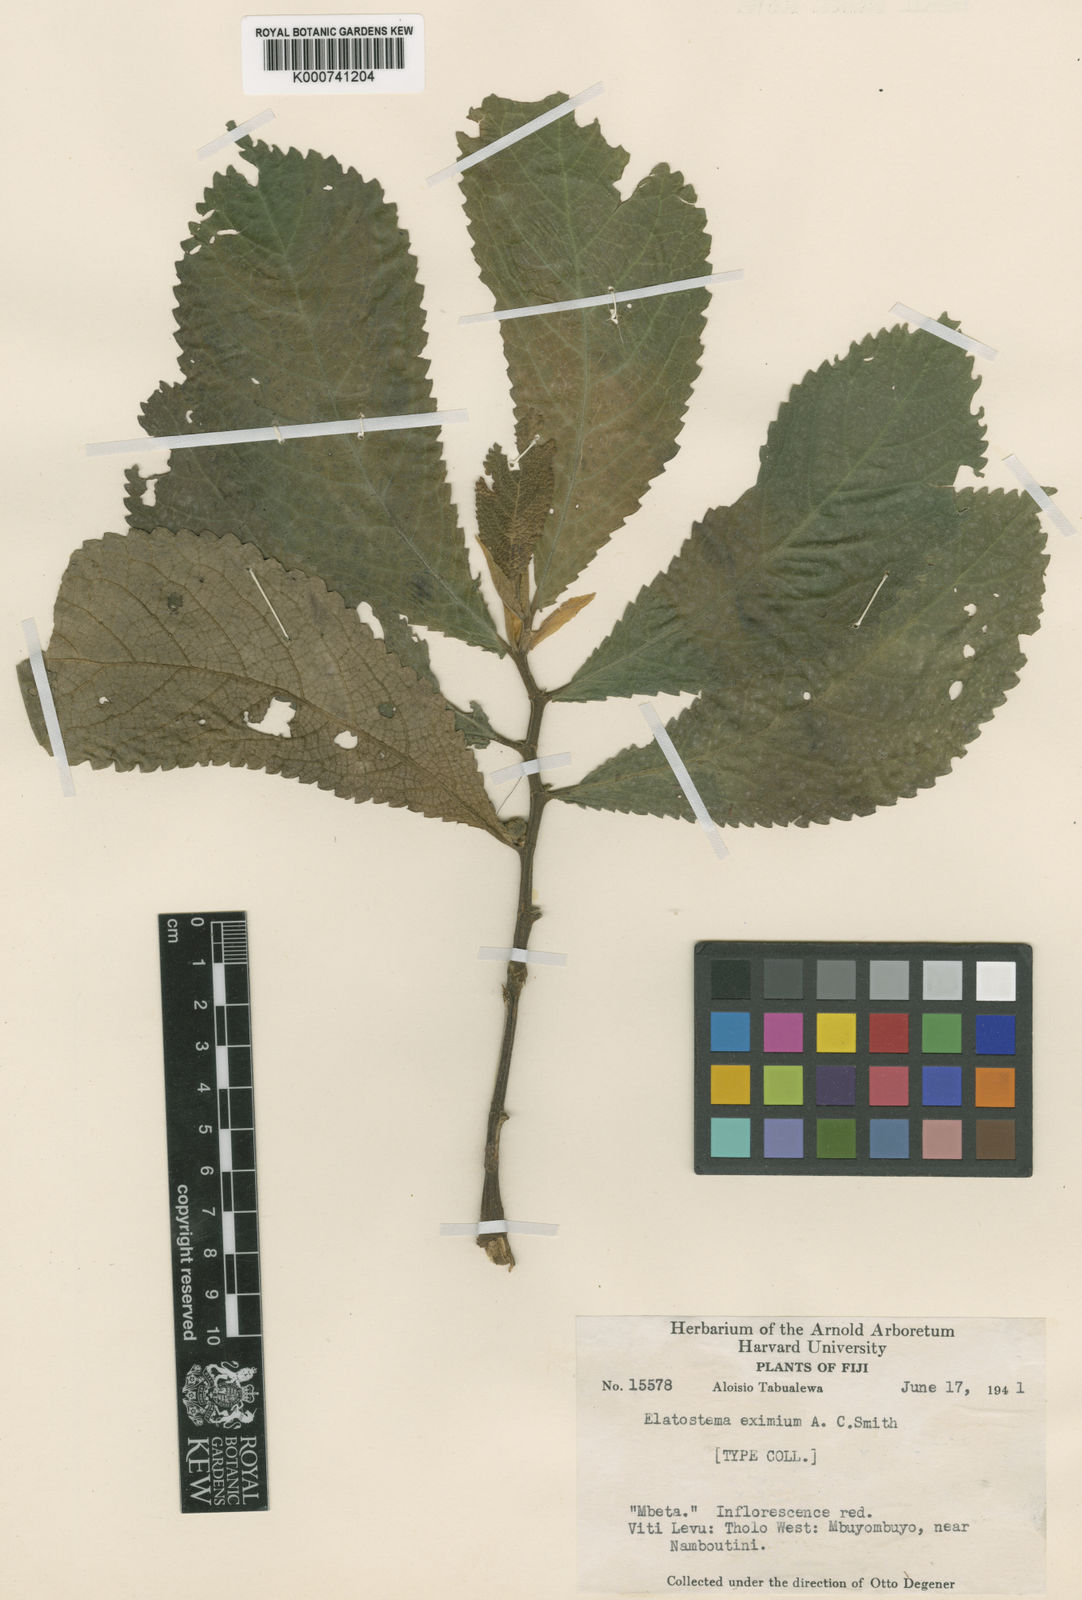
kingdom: Plantae
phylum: Tracheophyta
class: Magnoliopsida
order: Rosales
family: Urticaceae
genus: Elatostema
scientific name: Elatostema tenellum
